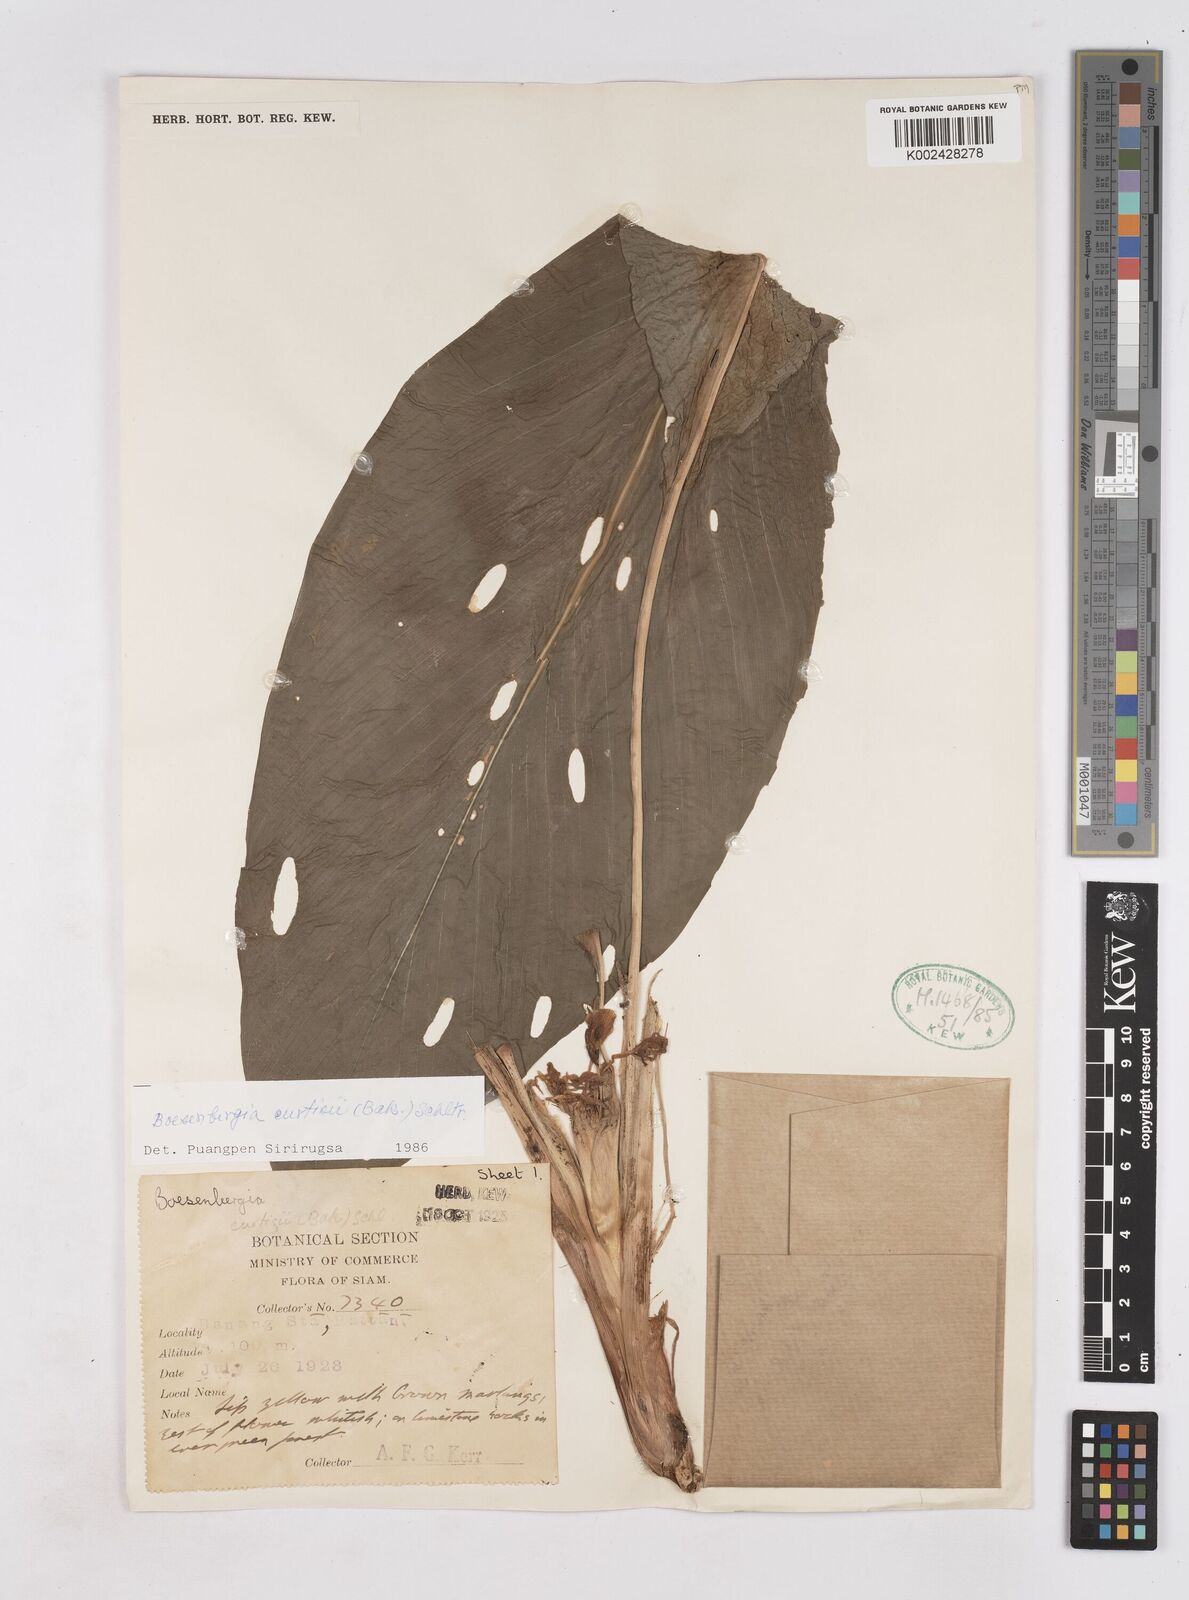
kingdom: Plantae
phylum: Tracheophyta
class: Liliopsida
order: Zingiberales
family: Zingiberaceae
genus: Boesenbergia
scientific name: Boesenbergia curtisii
